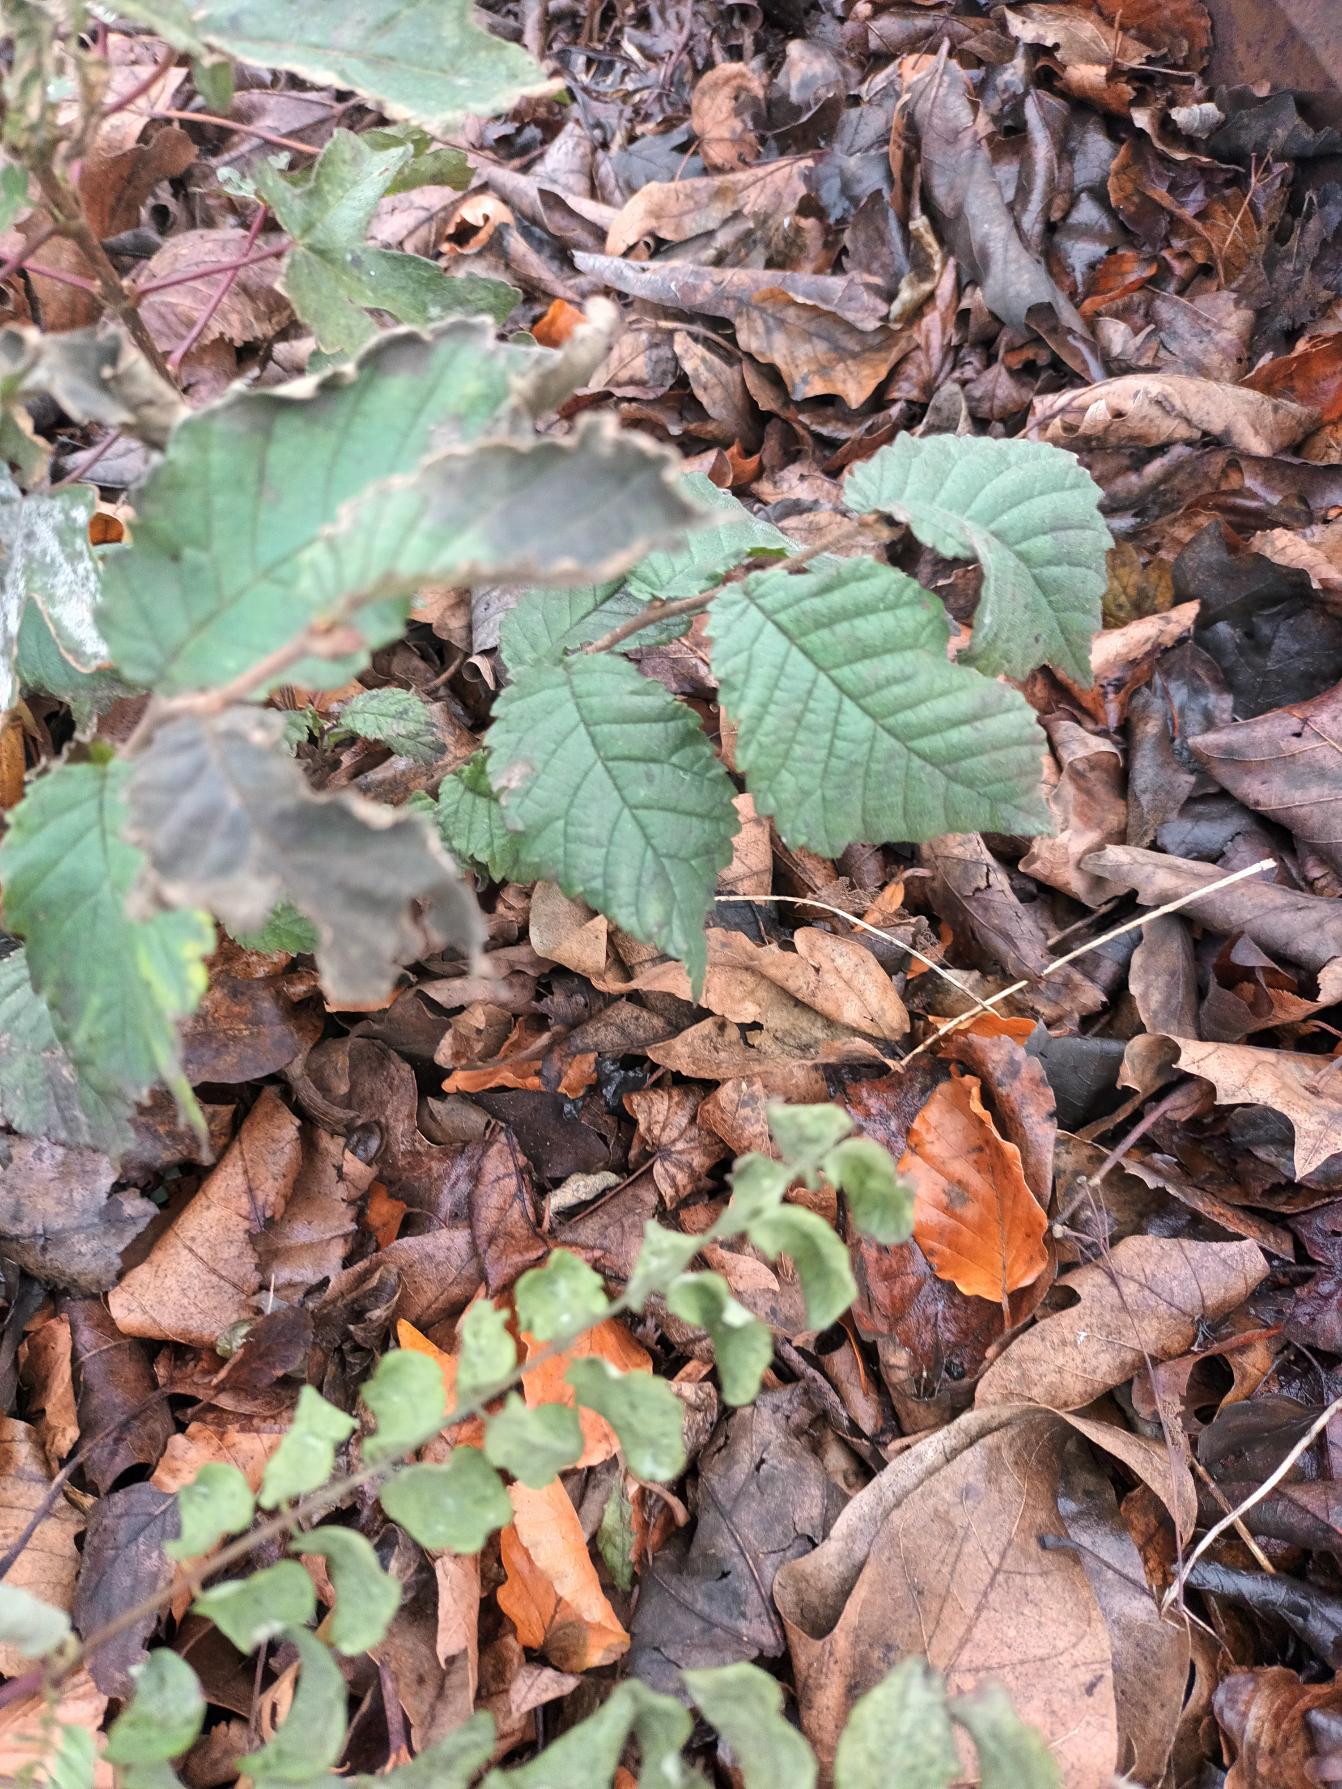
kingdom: Plantae
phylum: Tracheophyta
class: Magnoliopsida
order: Rosales
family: Ulmaceae
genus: Ulmus
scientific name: Ulmus glabra
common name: Skov-elm/storbladet elm
